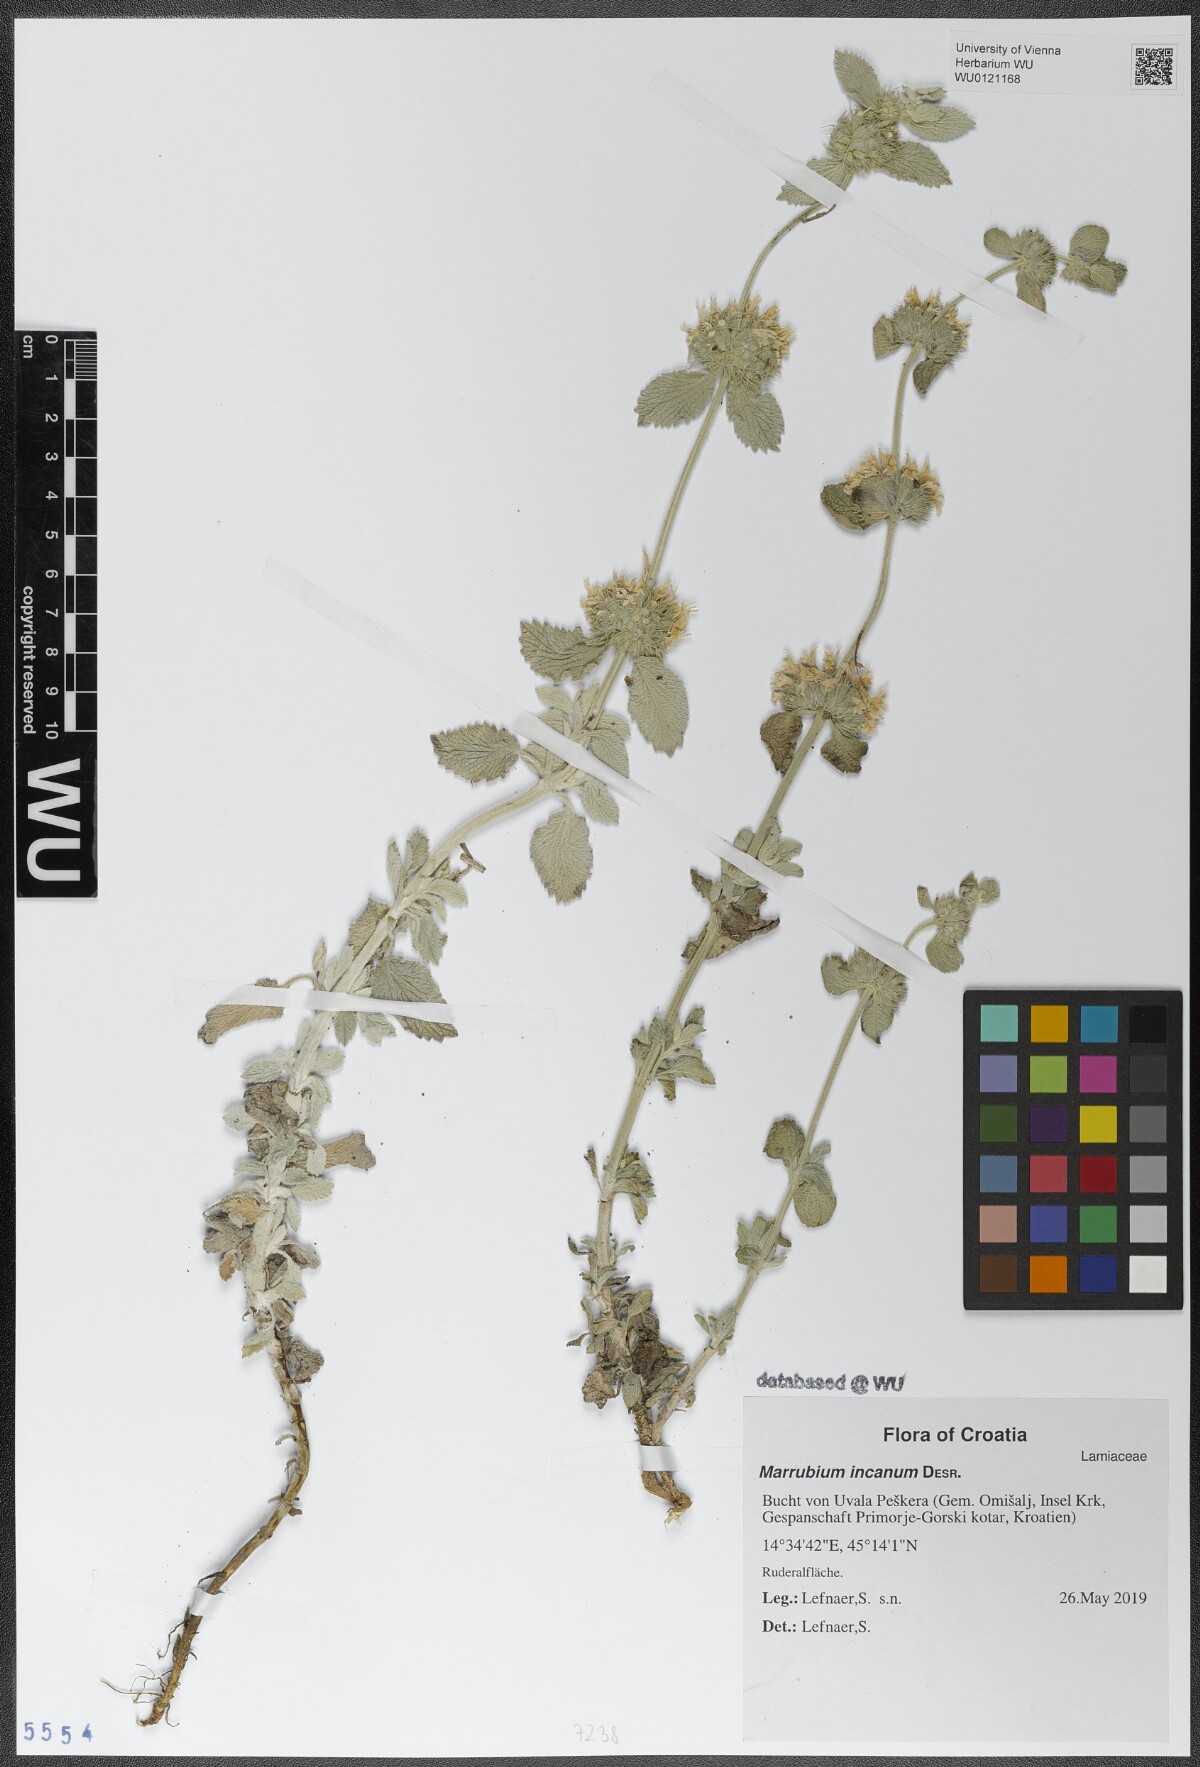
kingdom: Plantae
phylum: Tracheophyta
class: Magnoliopsida
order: Lamiales
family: Lamiaceae
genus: Marrubium
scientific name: Marrubium incanum
